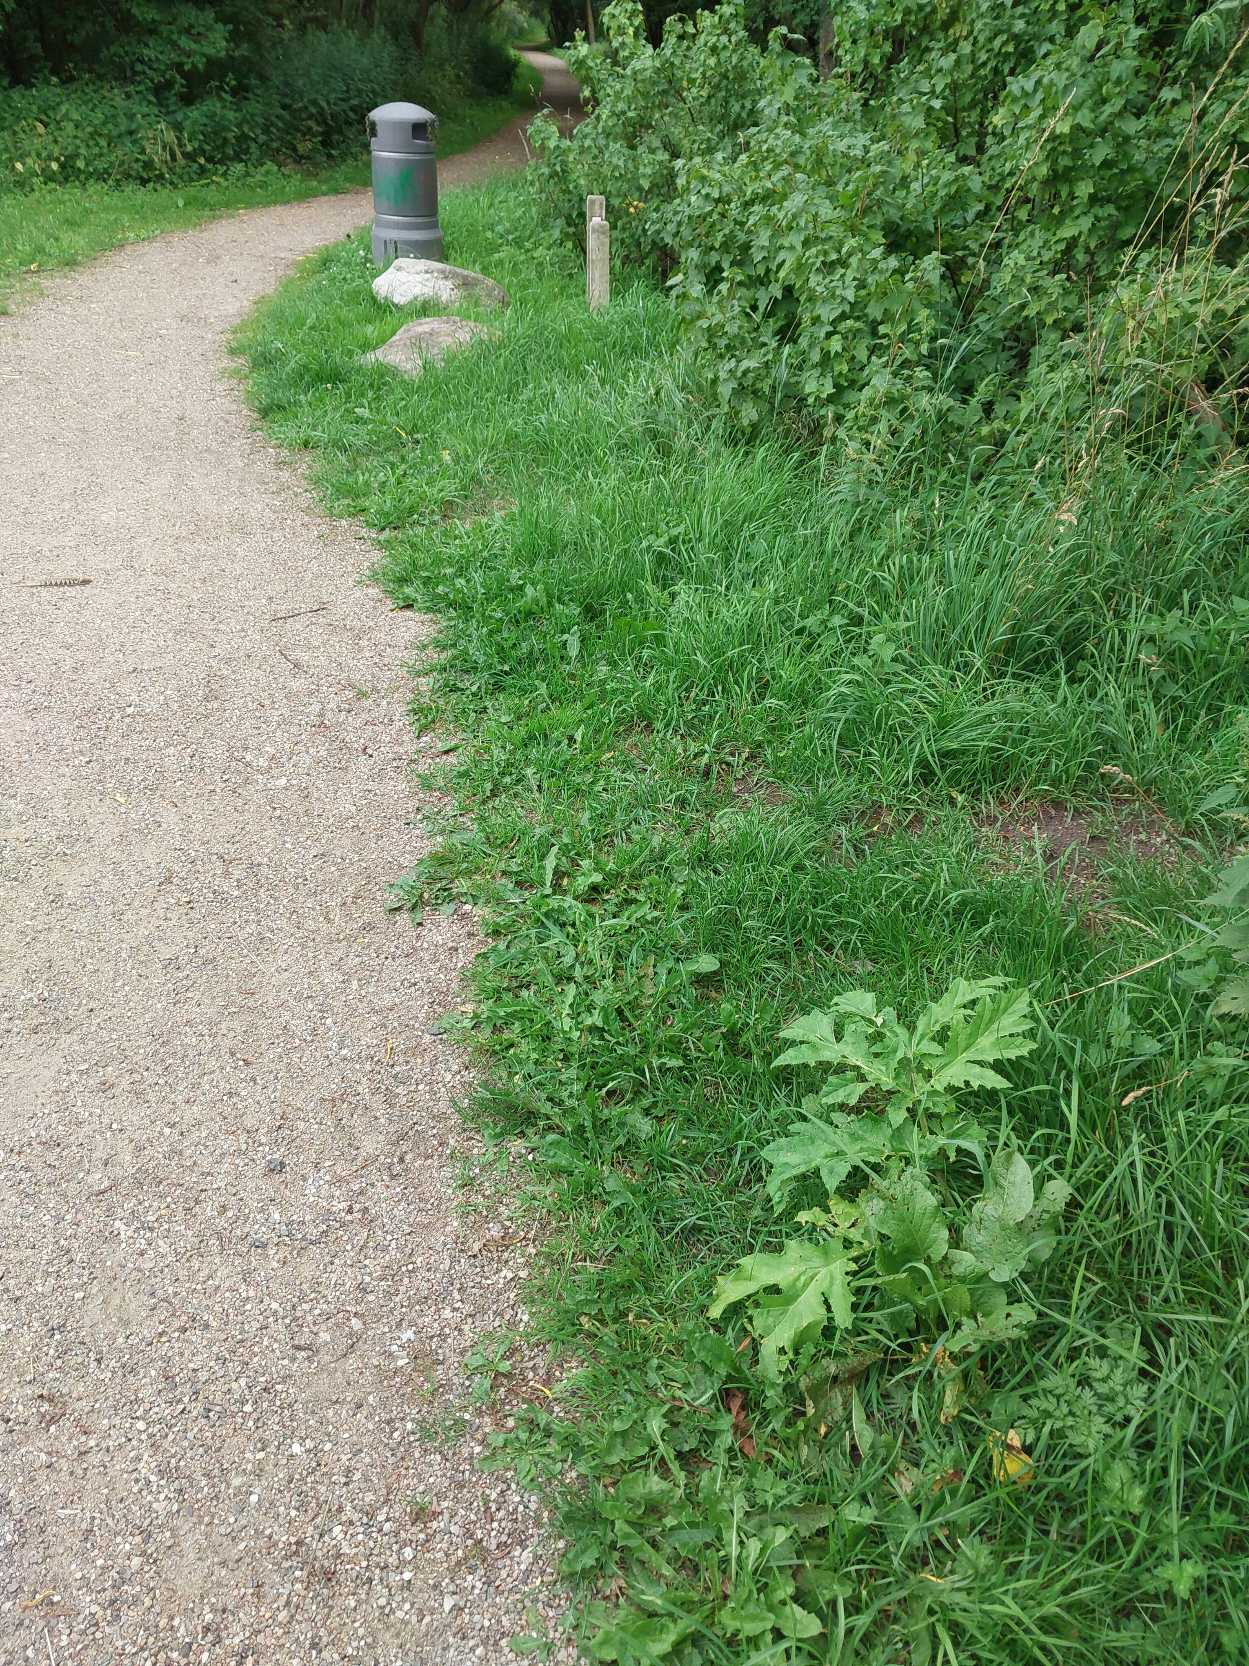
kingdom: Plantae
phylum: Tracheophyta
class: Magnoliopsida
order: Apiales
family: Apiaceae
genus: Heracleum
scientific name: Heracleum mantegazzianum
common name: Kæmpe-bjørneklo
